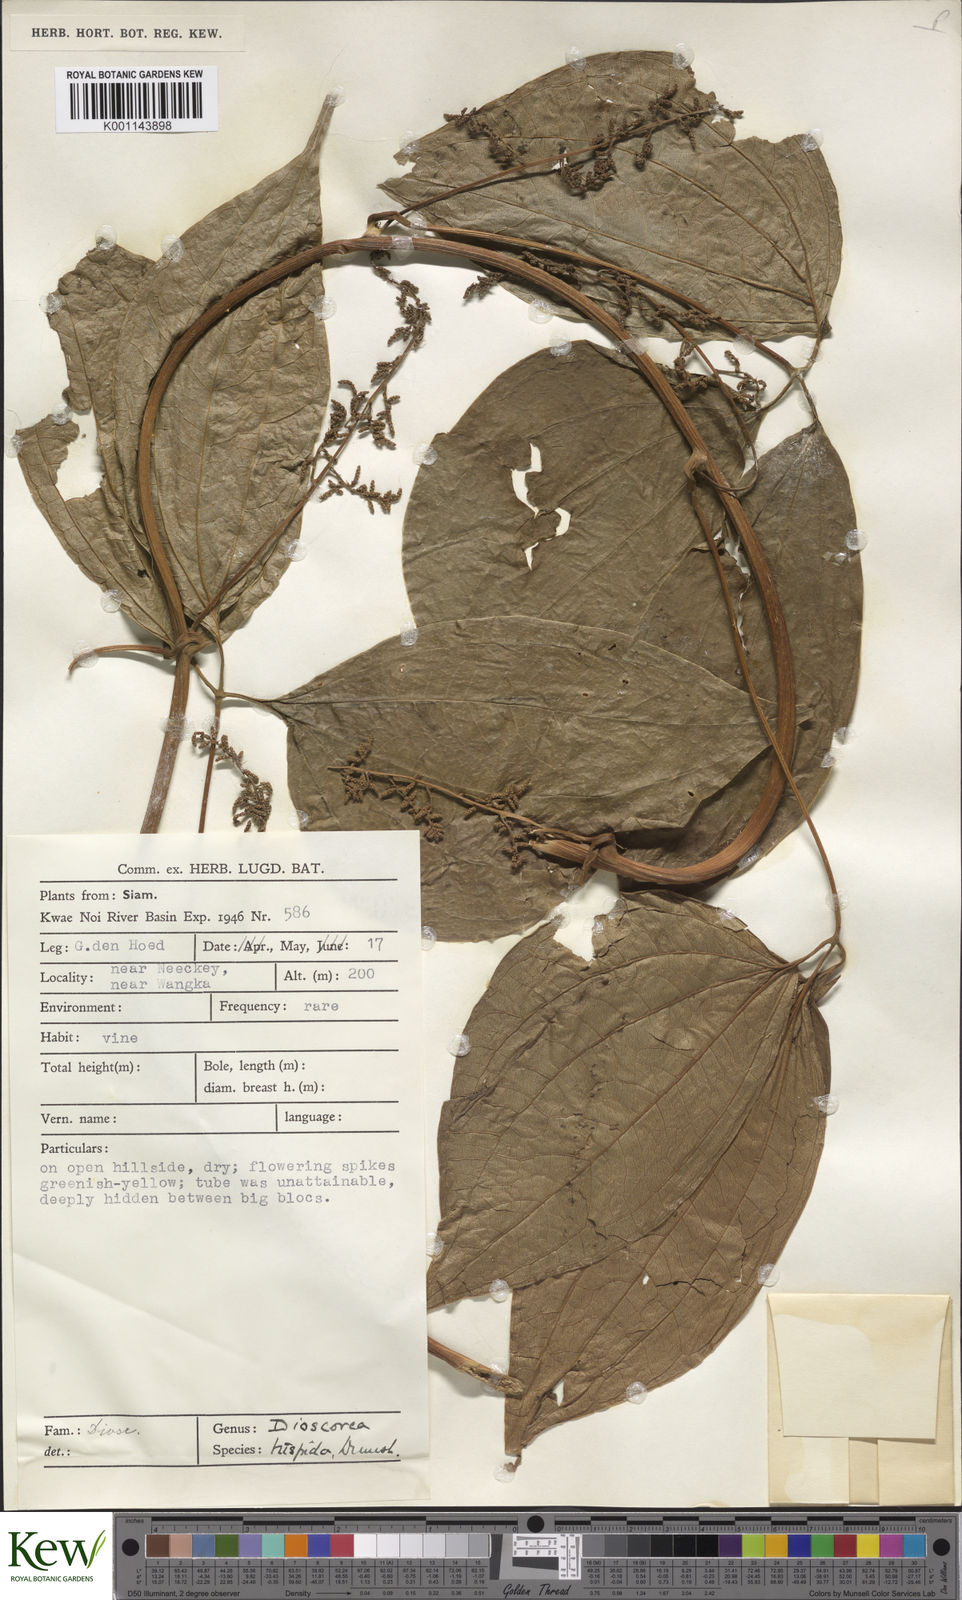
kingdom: Plantae
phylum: Tracheophyta
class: Liliopsida
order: Dioscoreales
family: Dioscoreaceae
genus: Dioscorea
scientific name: Dioscorea hispida
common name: Asiatic bitter yam
